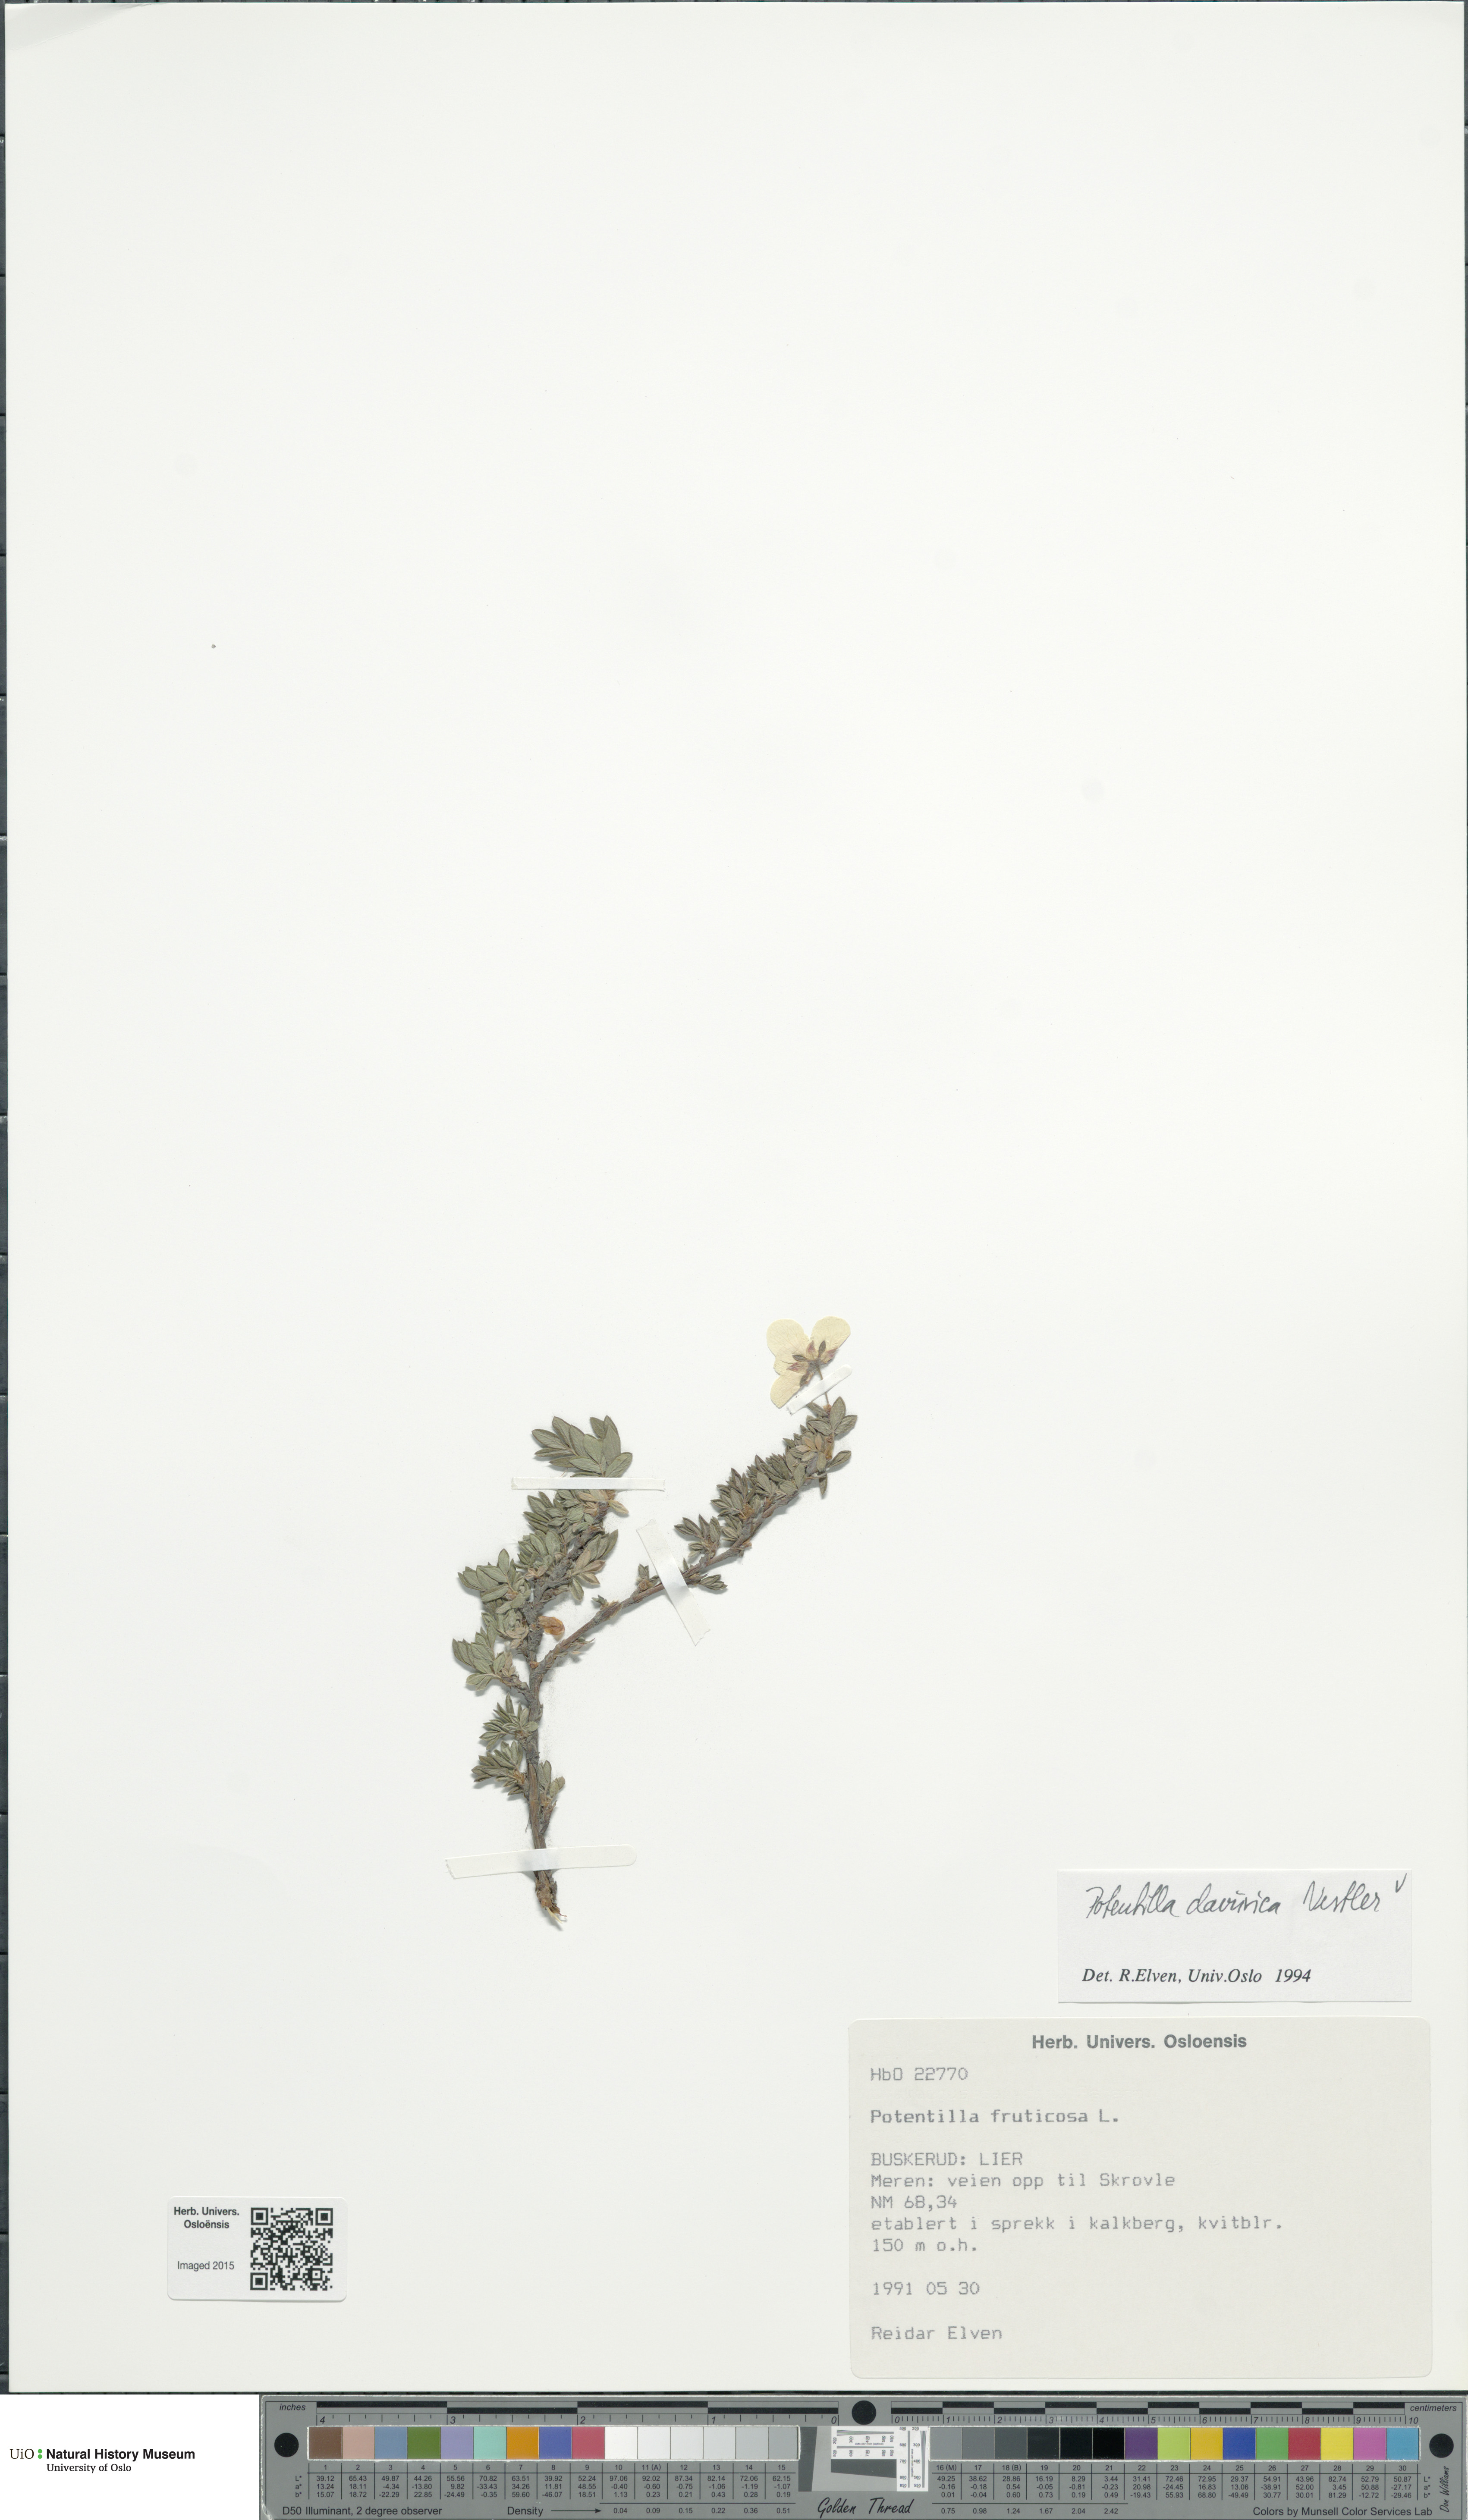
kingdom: Plantae
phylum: Tracheophyta
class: Magnoliopsida
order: Rosales
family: Rosaceae
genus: Dasiphora
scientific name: Dasiphora davurica
